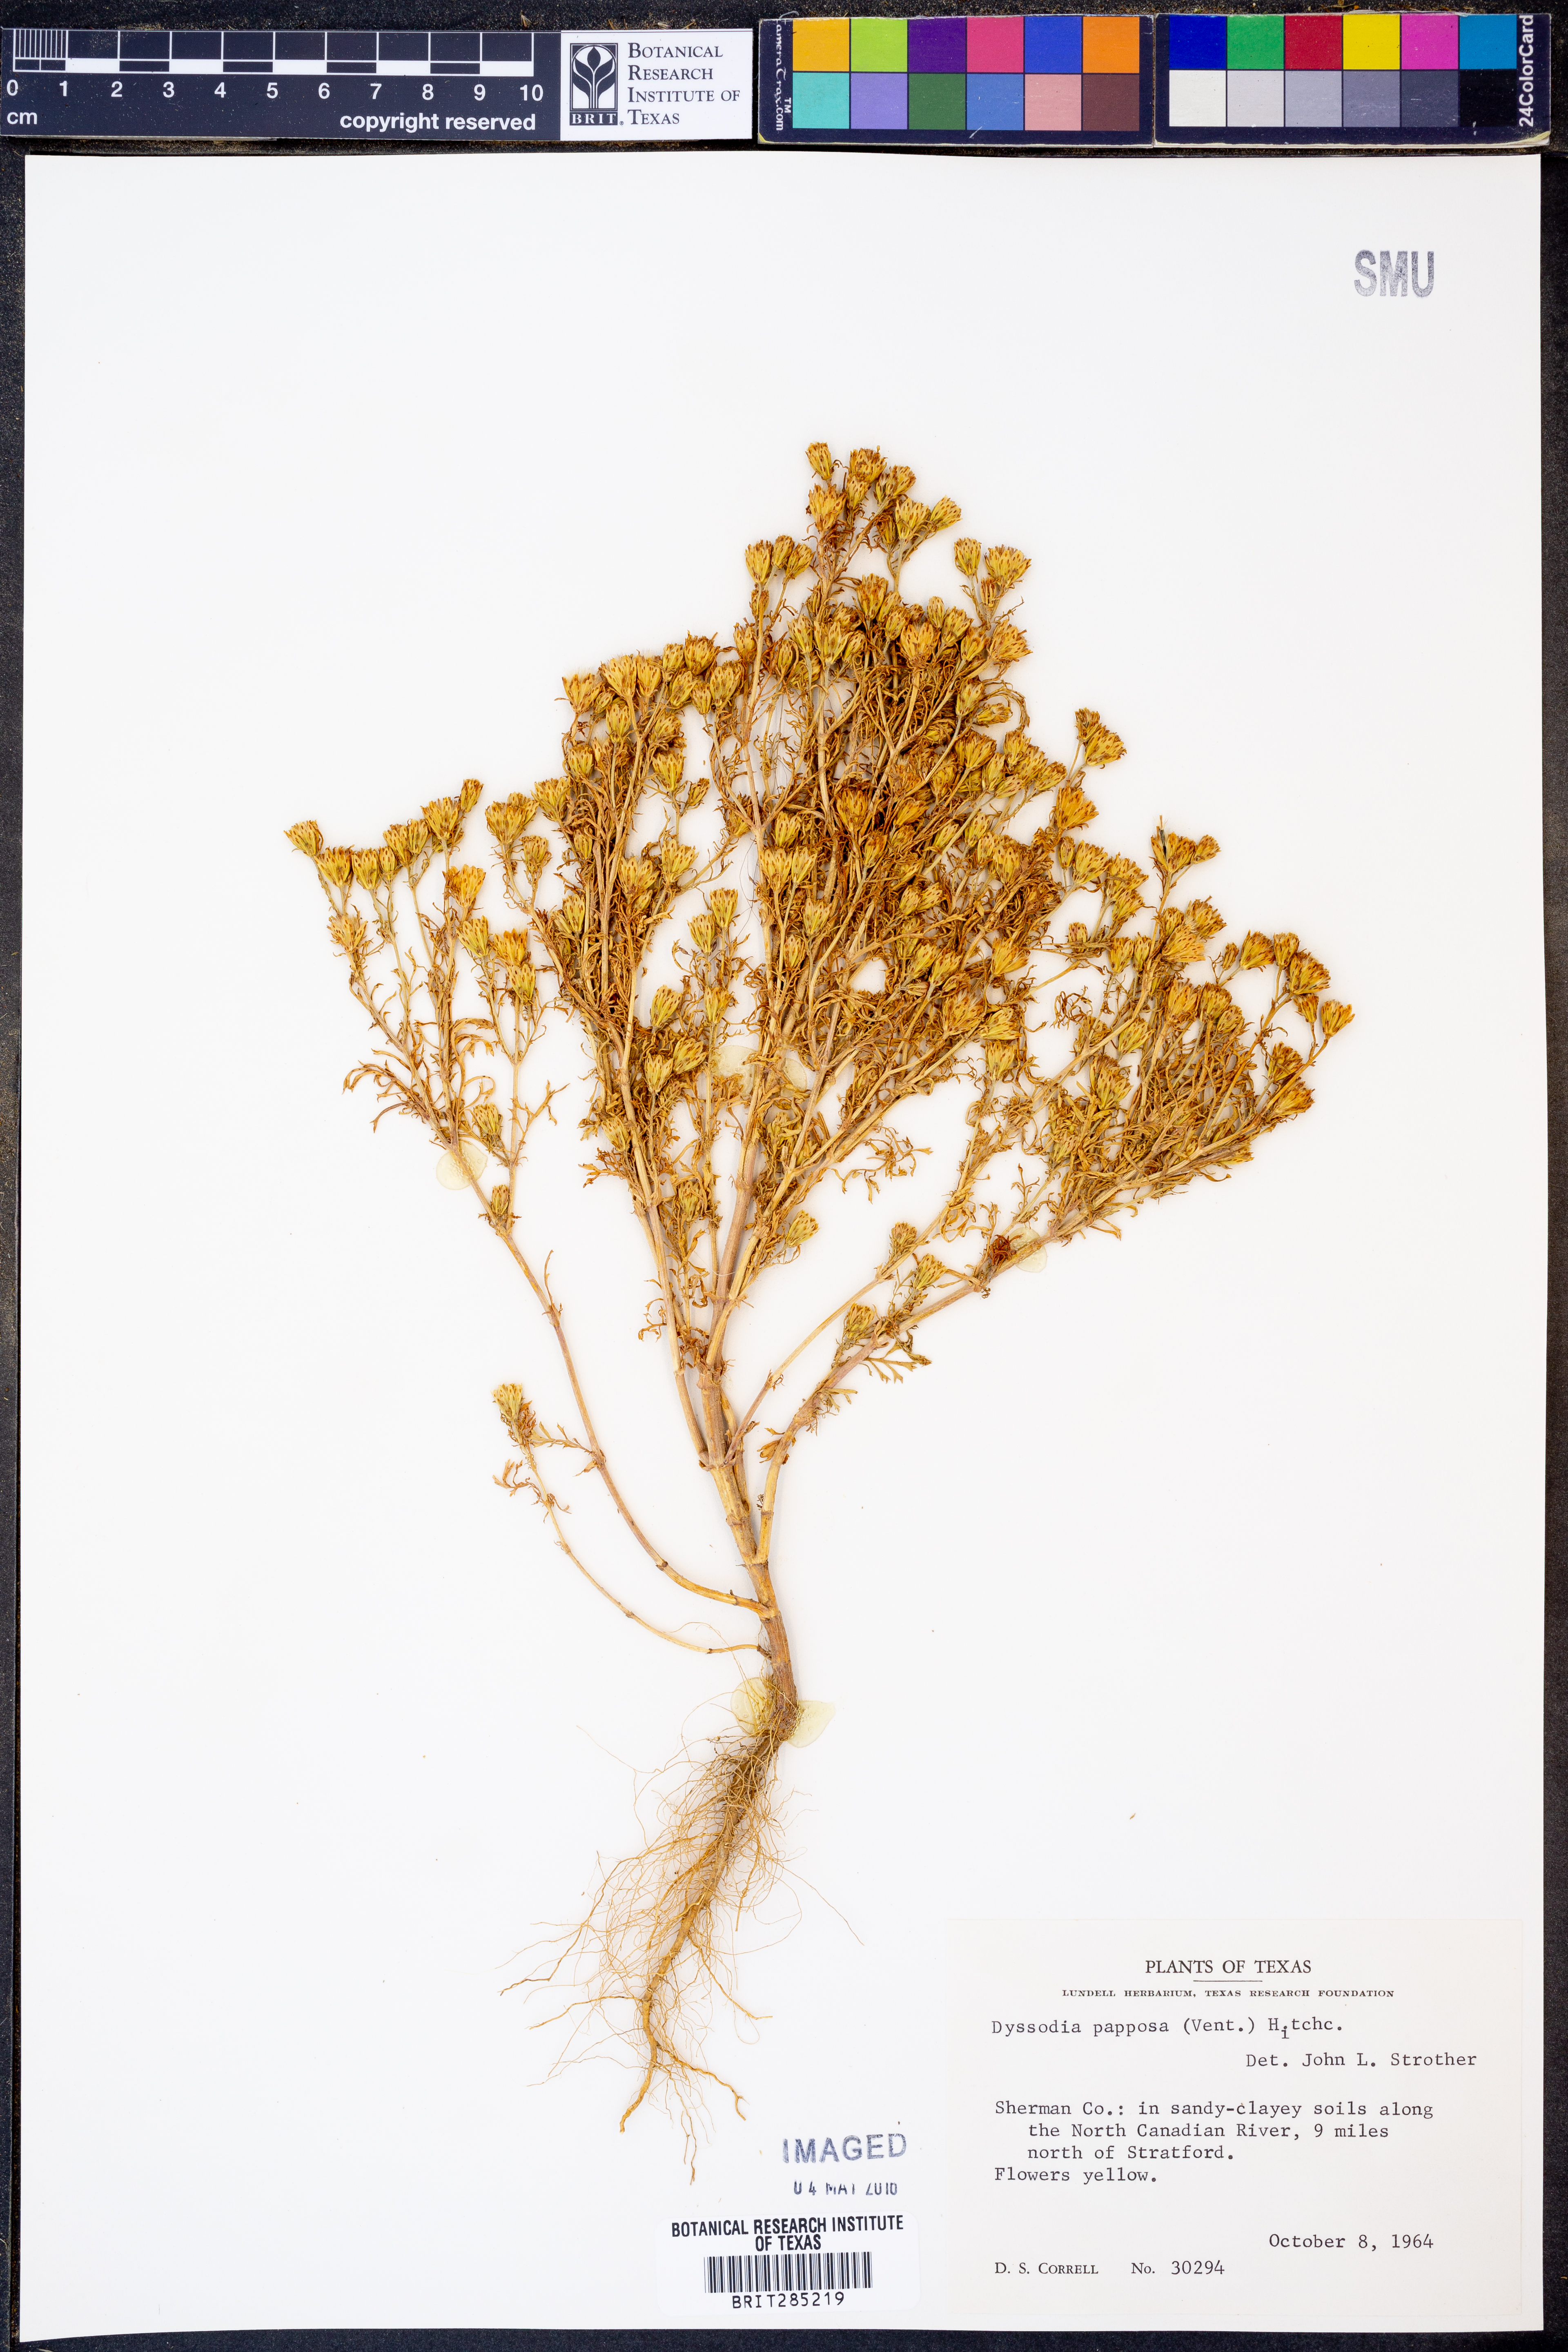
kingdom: Plantae
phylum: Tracheophyta
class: Magnoliopsida
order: Asterales
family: Asteraceae
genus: Dyssodia
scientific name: Dyssodia papposa
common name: Dogweed
